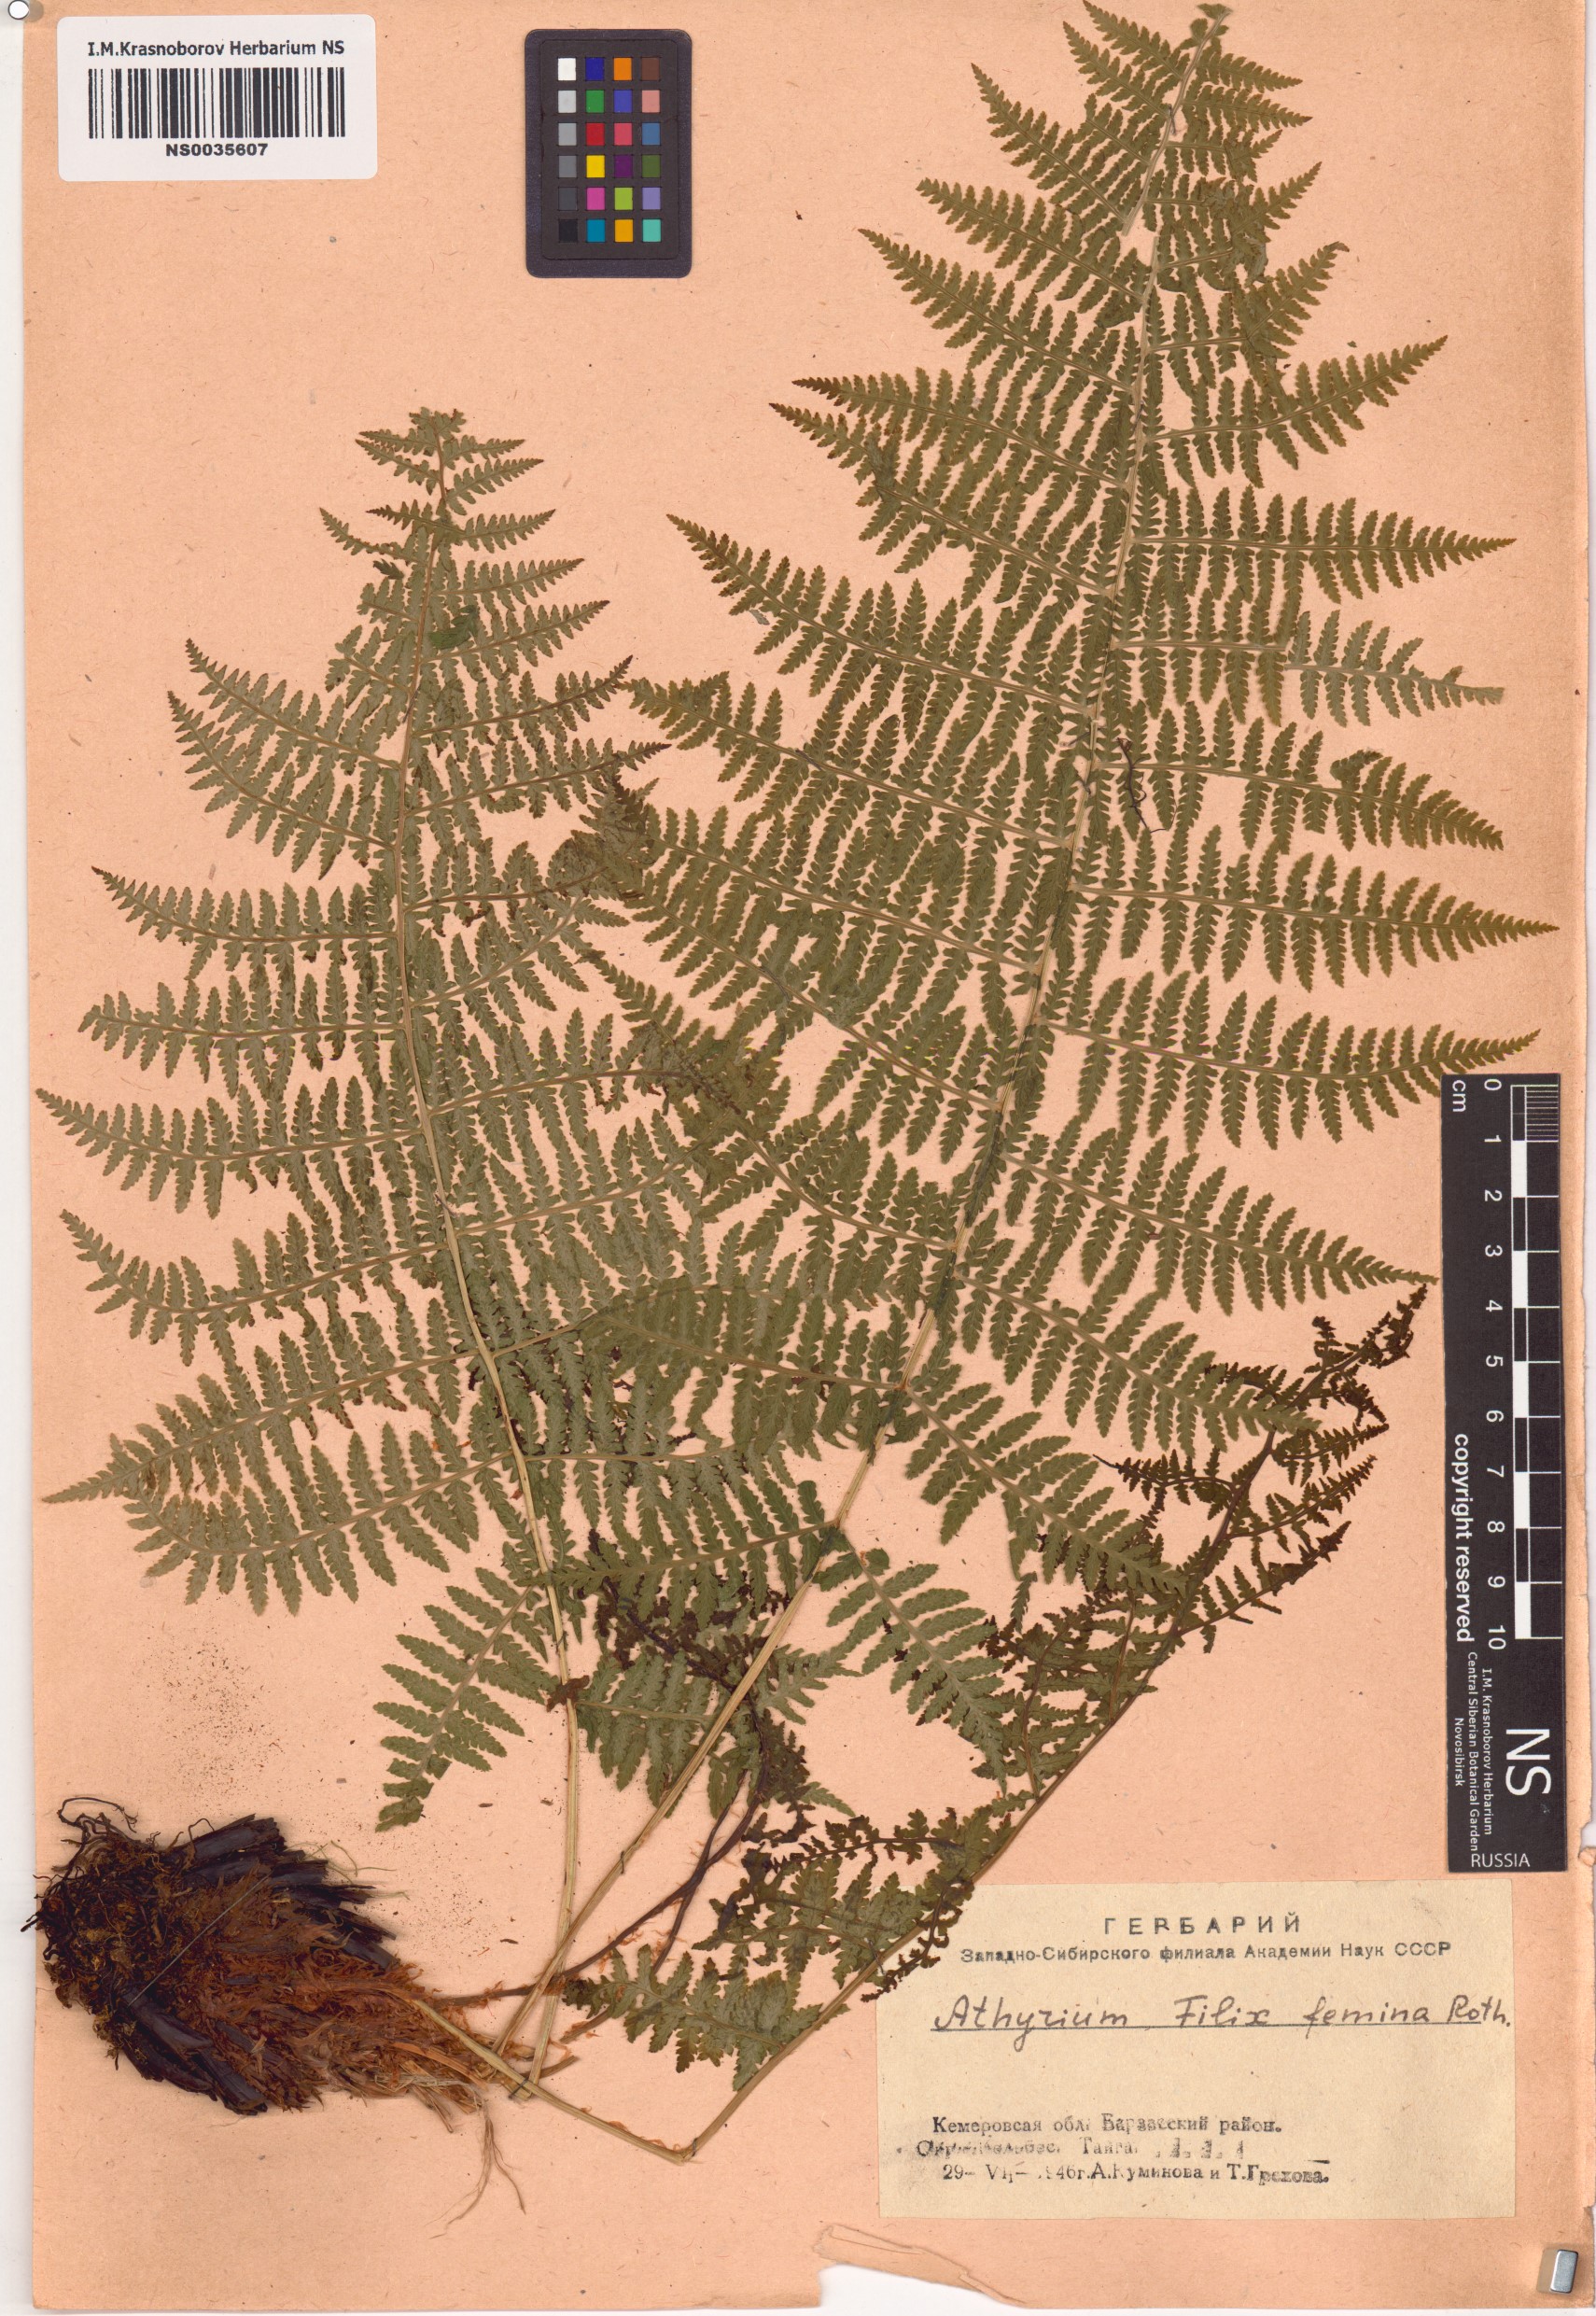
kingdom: Plantae
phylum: Tracheophyta
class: Polypodiopsida
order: Polypodiales
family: Athyriaceae
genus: Athyrium
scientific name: Athyrium filix-femina
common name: Lady fern
